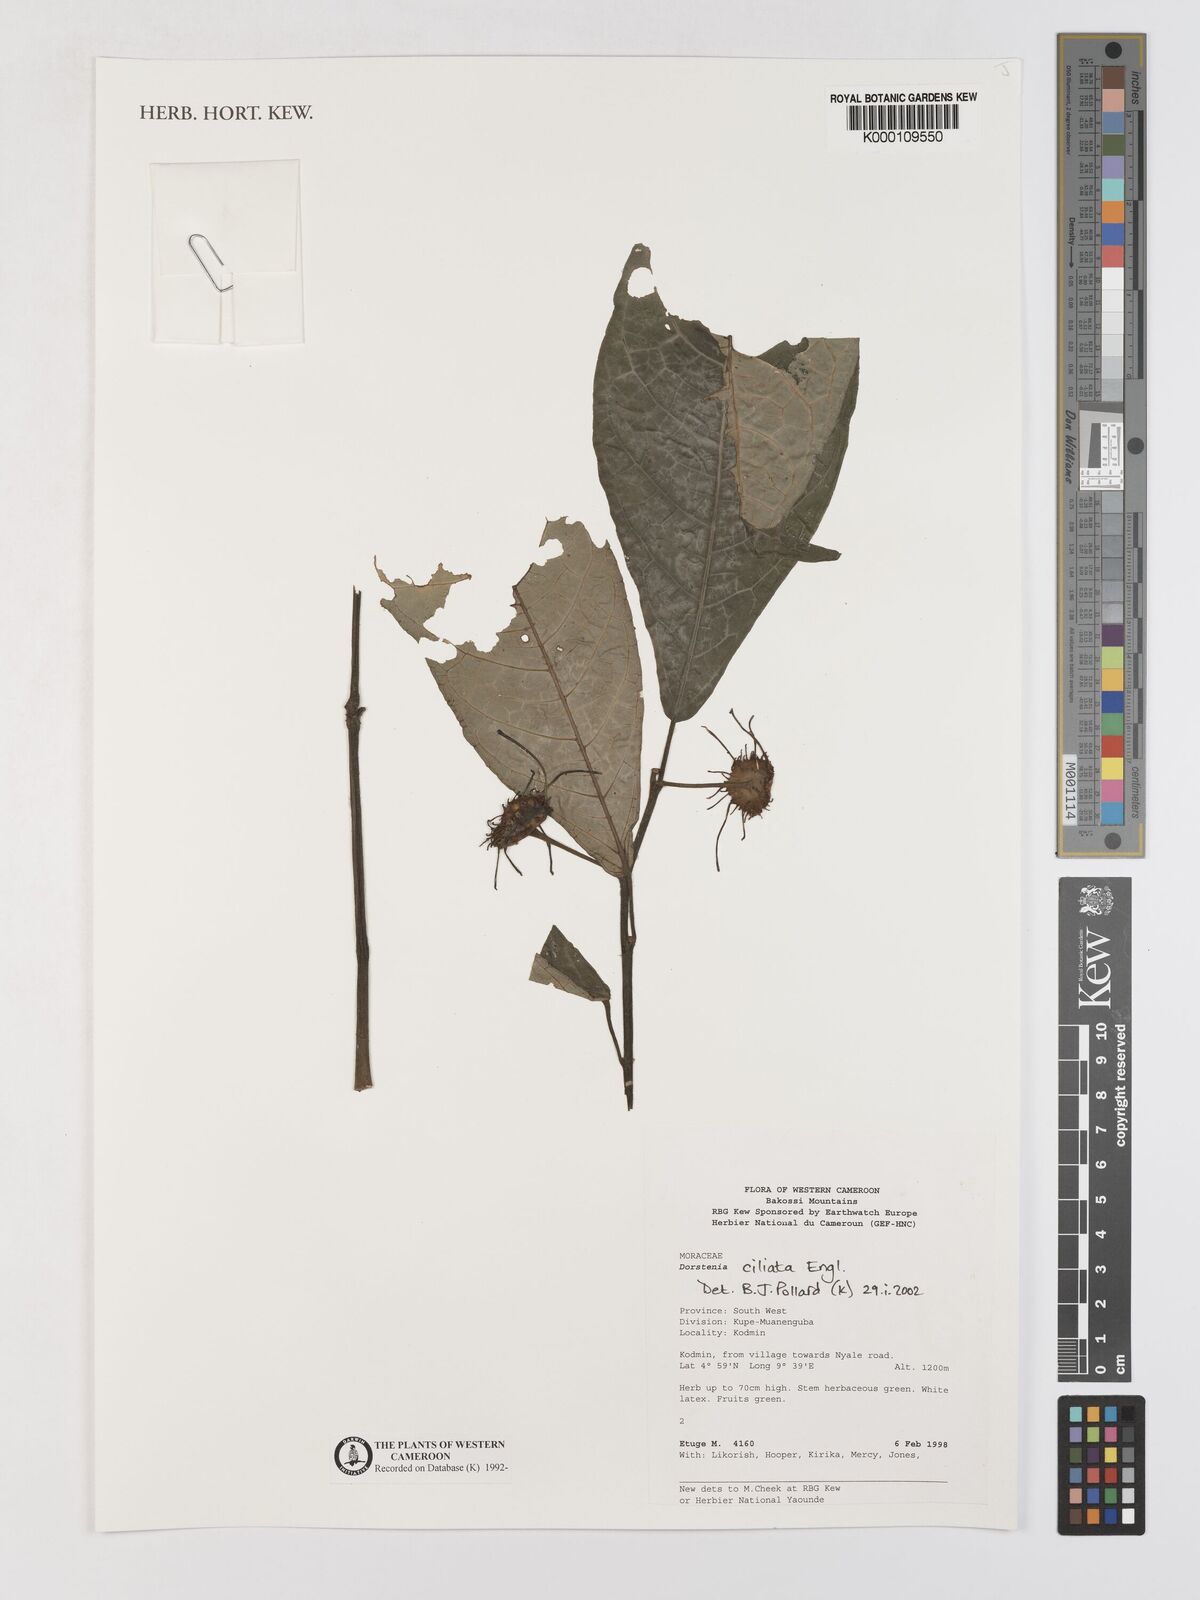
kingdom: Plantae
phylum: Tracheophyta
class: Magnoliopsida
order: Rosales
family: Moraceae
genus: Dorstenia
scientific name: Dorstenia ciliata
